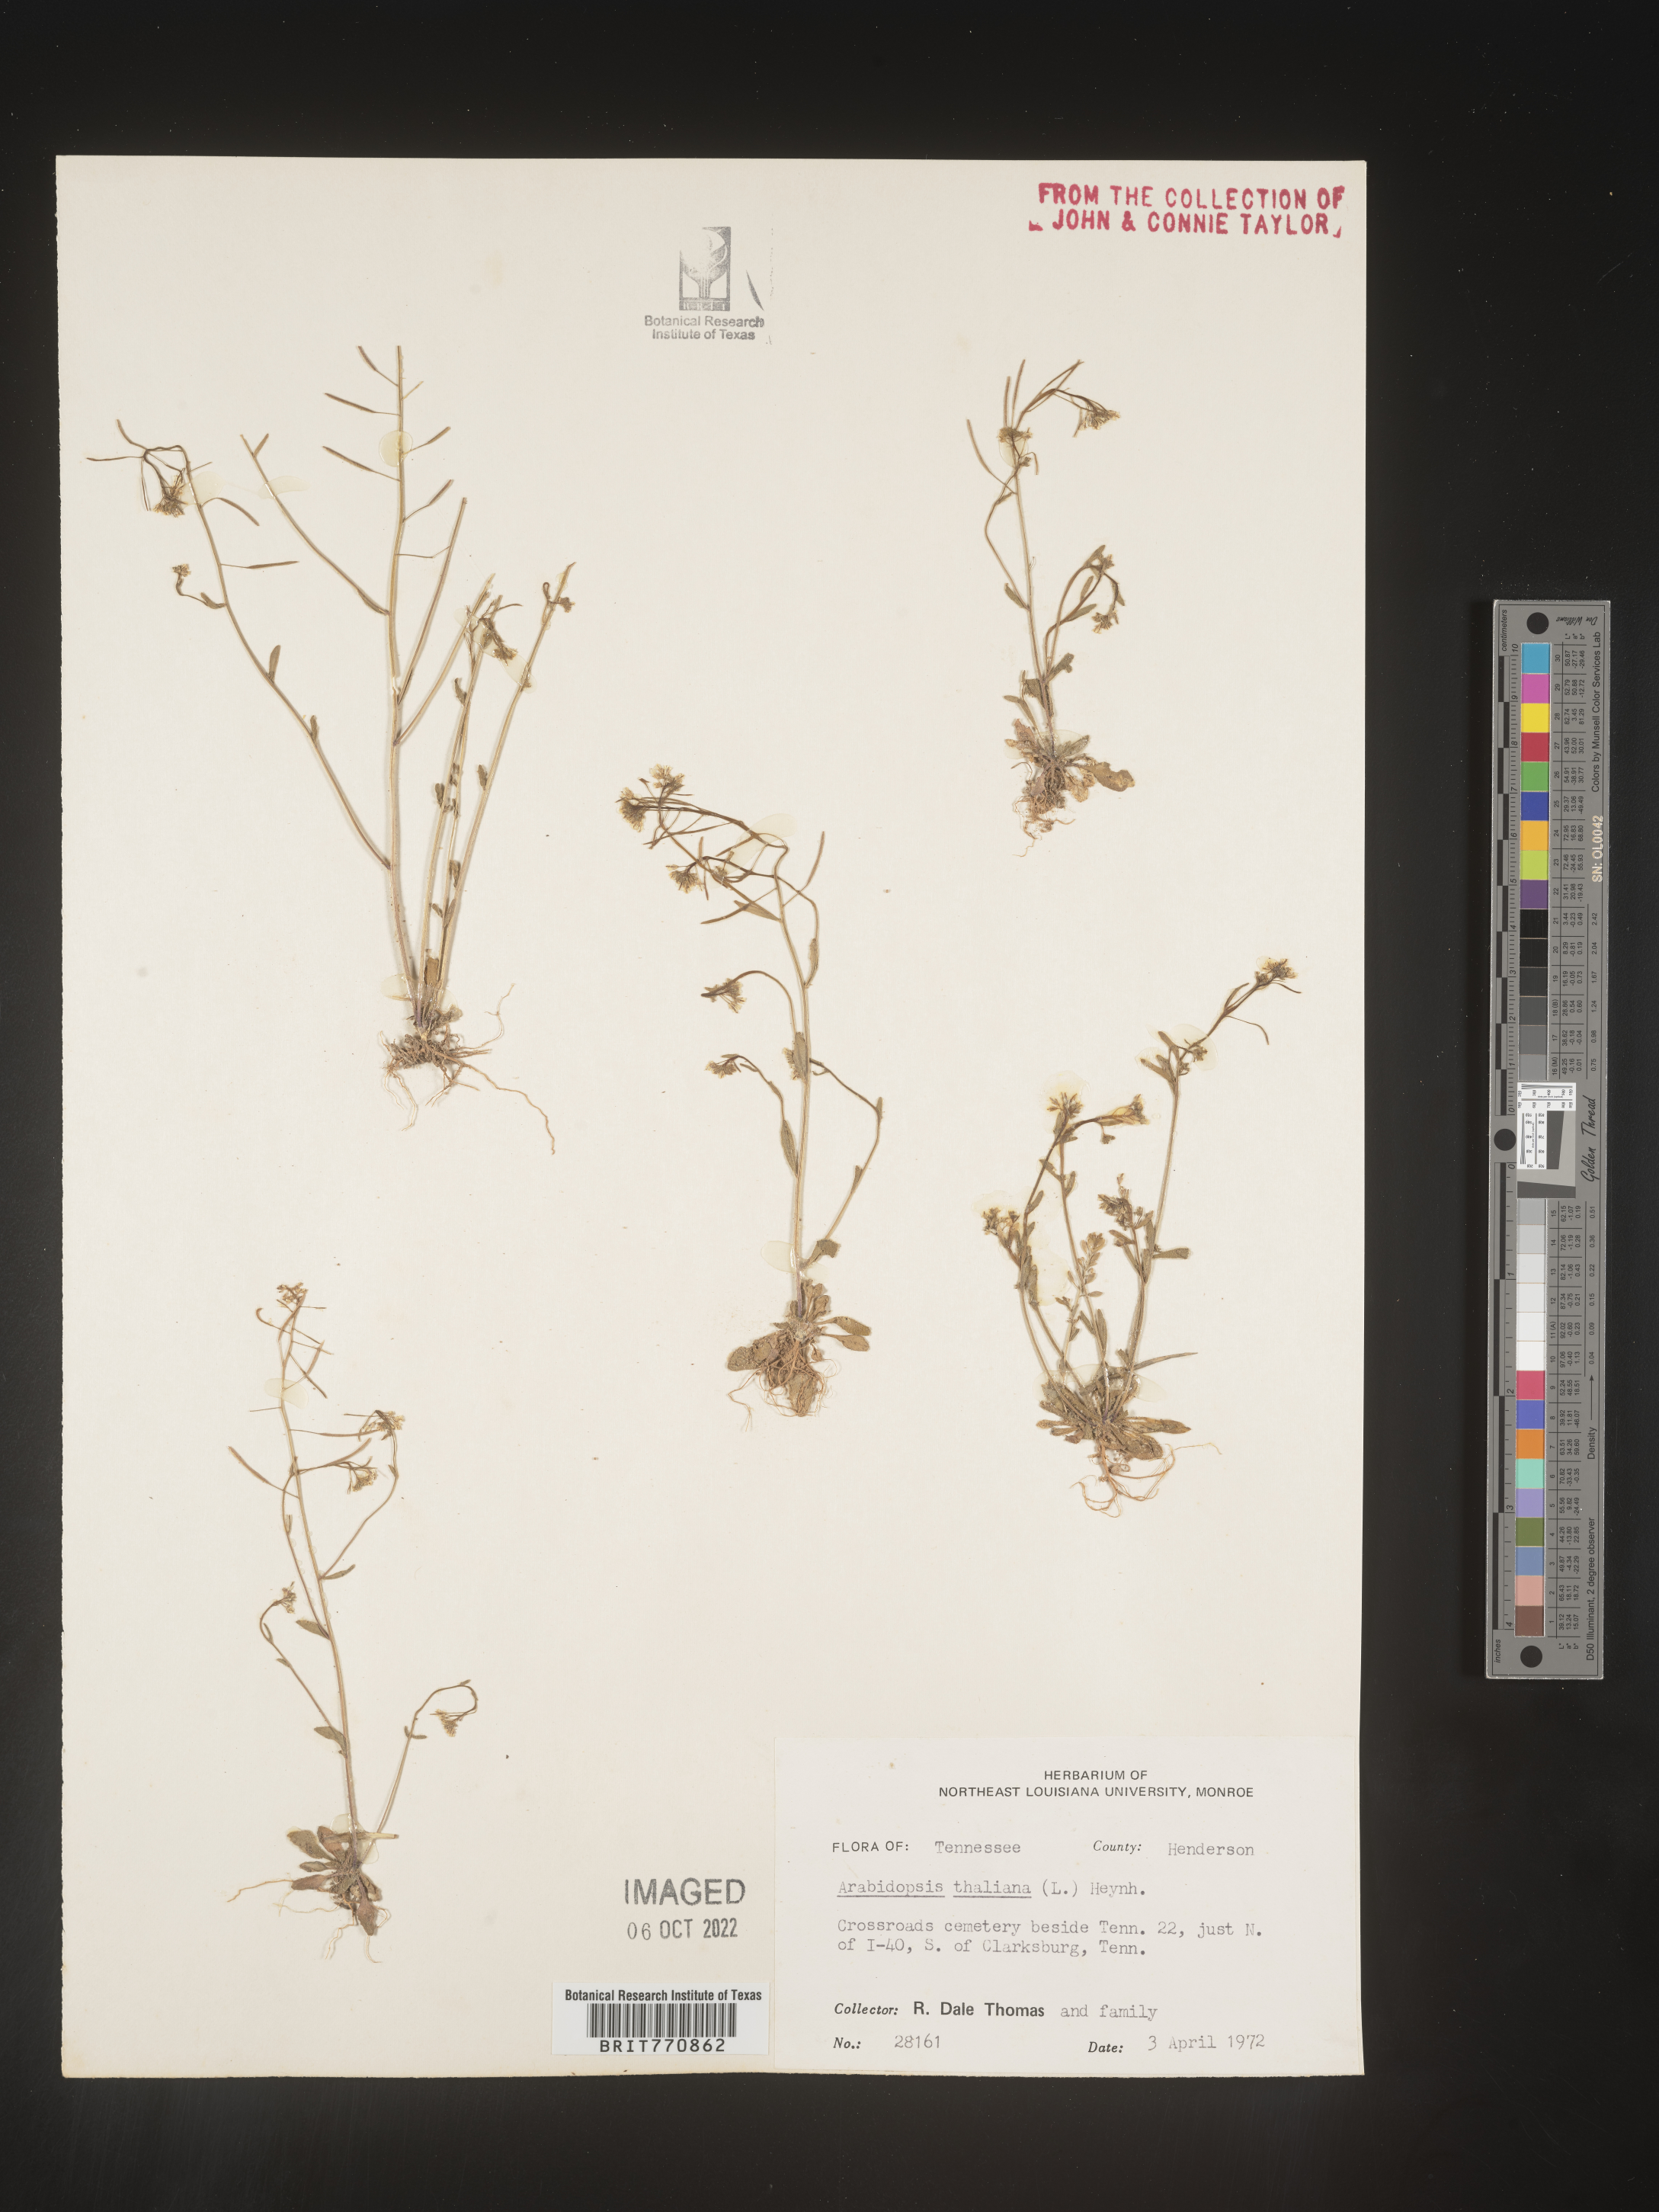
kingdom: Plantae
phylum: Tracheophyta
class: Magnoliopsida
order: Brassicales
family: Brassicaceae
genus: Arabidopsis
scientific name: Arabidopsis thaliana
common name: Thale cress
